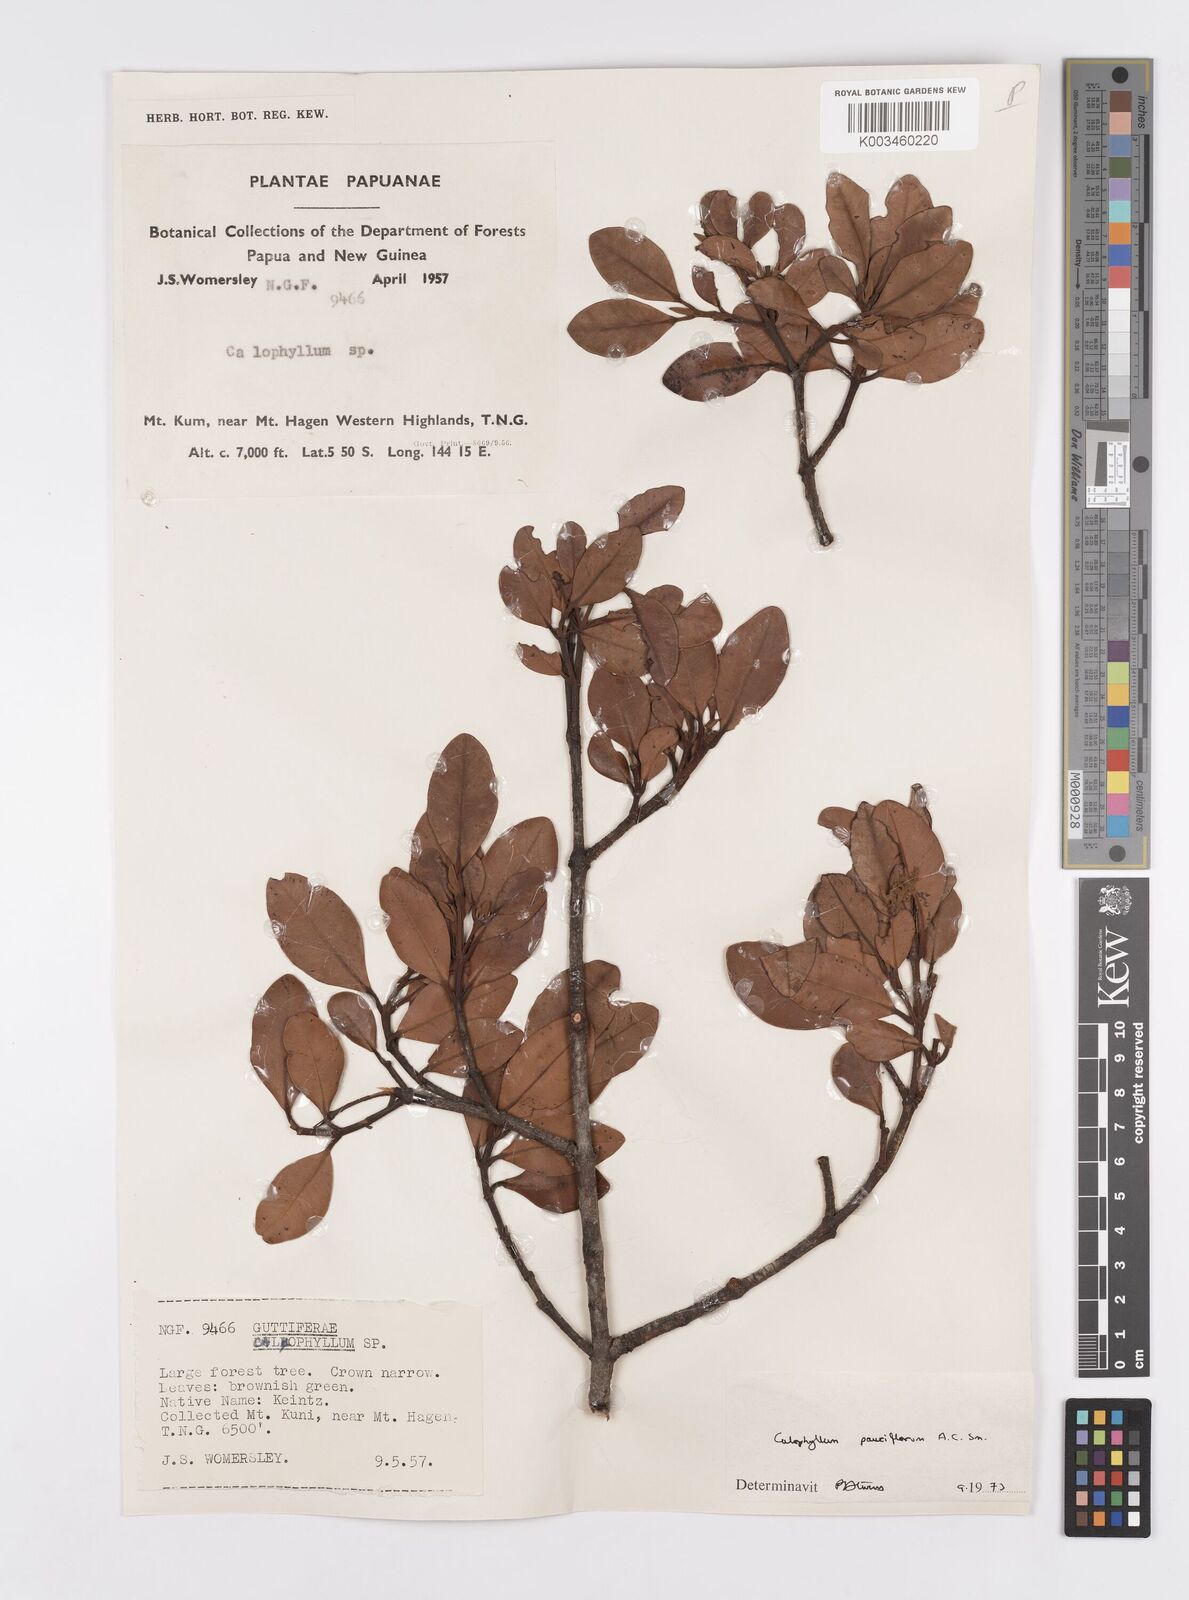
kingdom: Plantae
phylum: Tracheophyta
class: Magnoliopsida
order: Malpighiales
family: Calophyllaceae
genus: Calophyllum
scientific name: Calophyllum parviflorum
